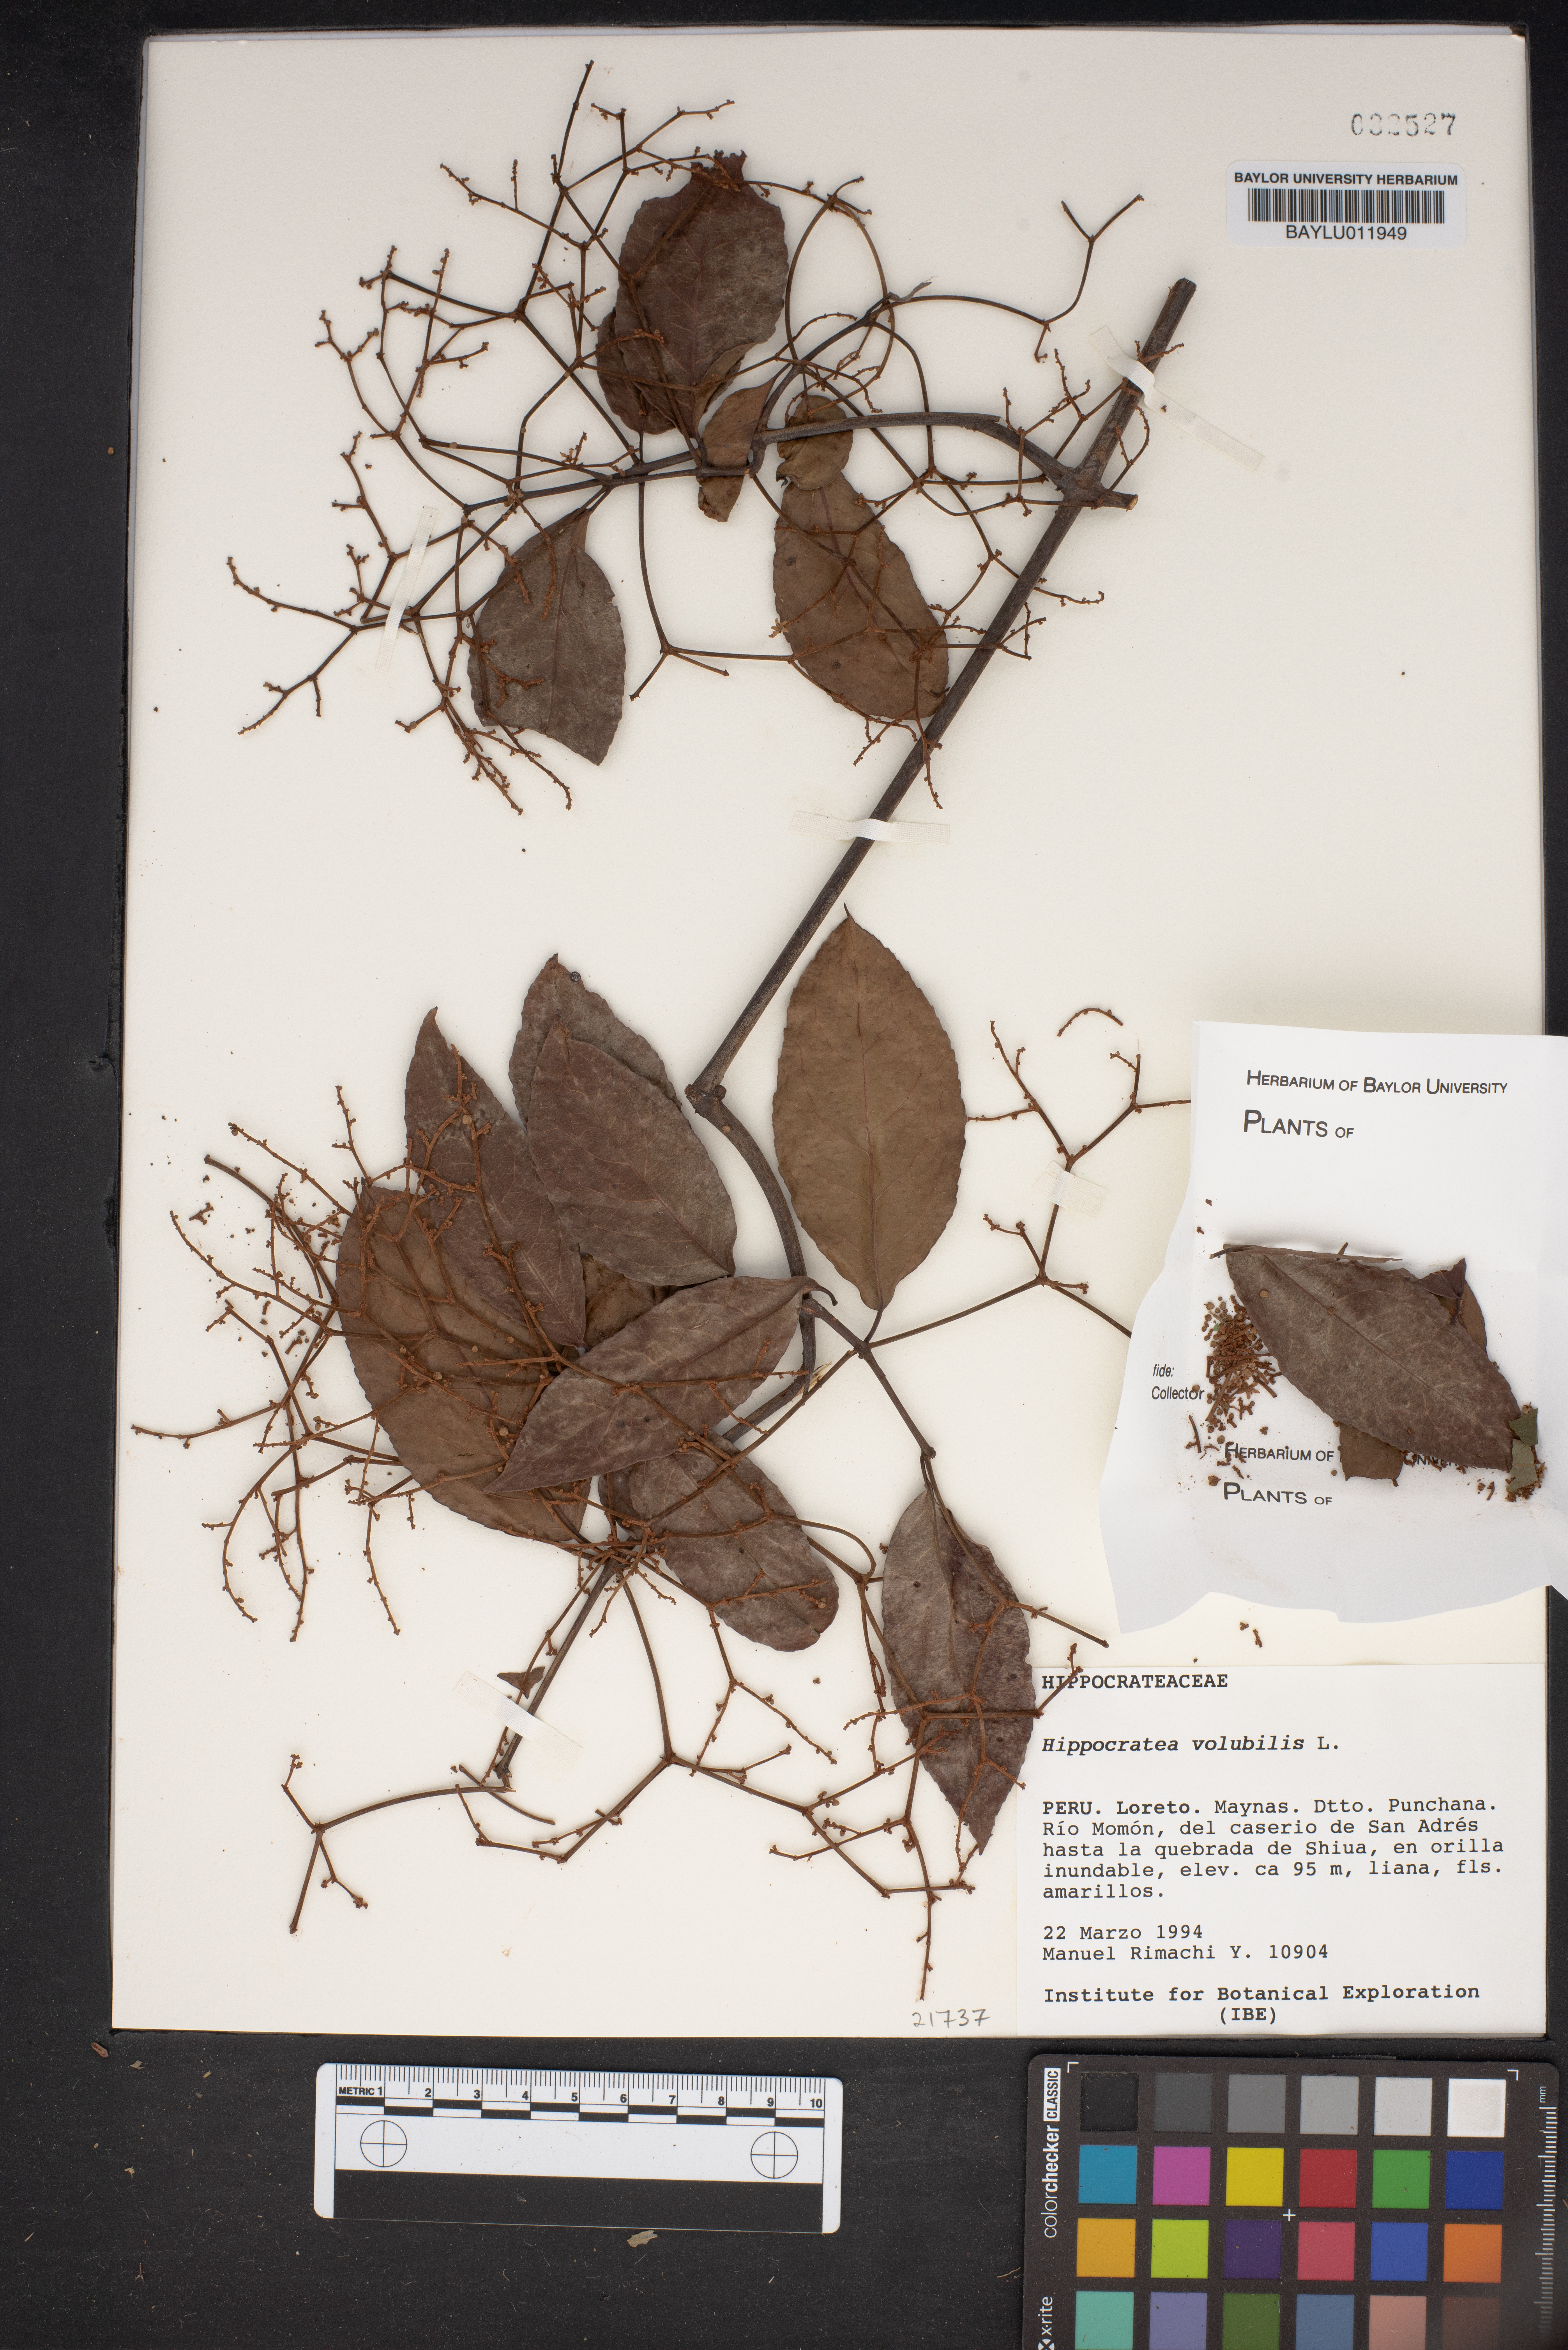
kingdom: Plantae
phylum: Tracheophyta
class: Magnoliopsida
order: Celastrales
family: Celastraceae
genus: Hippocratea
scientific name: Hippocratea volubilis
